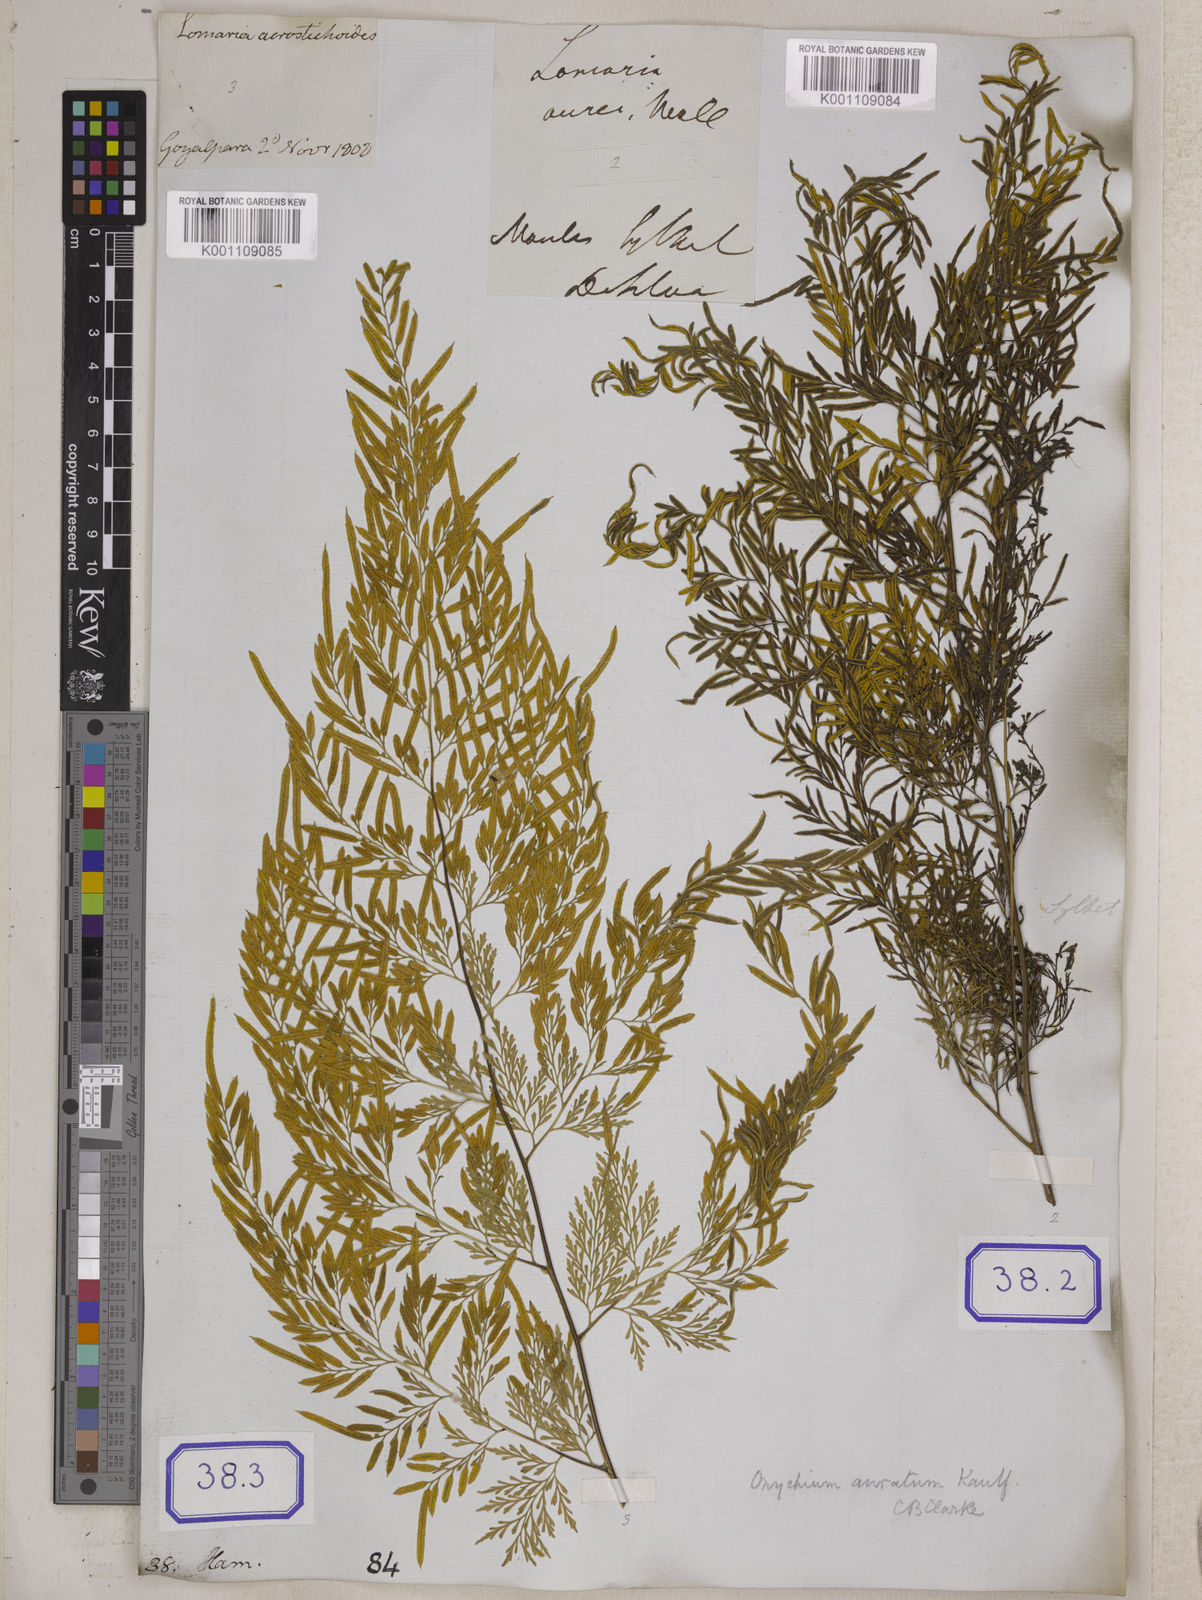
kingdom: Plantae
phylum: Tracheophyta
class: Polypodiopsida
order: Polypodiales
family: Pteridaceae
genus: Onychium
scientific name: Onychium siliculosum
